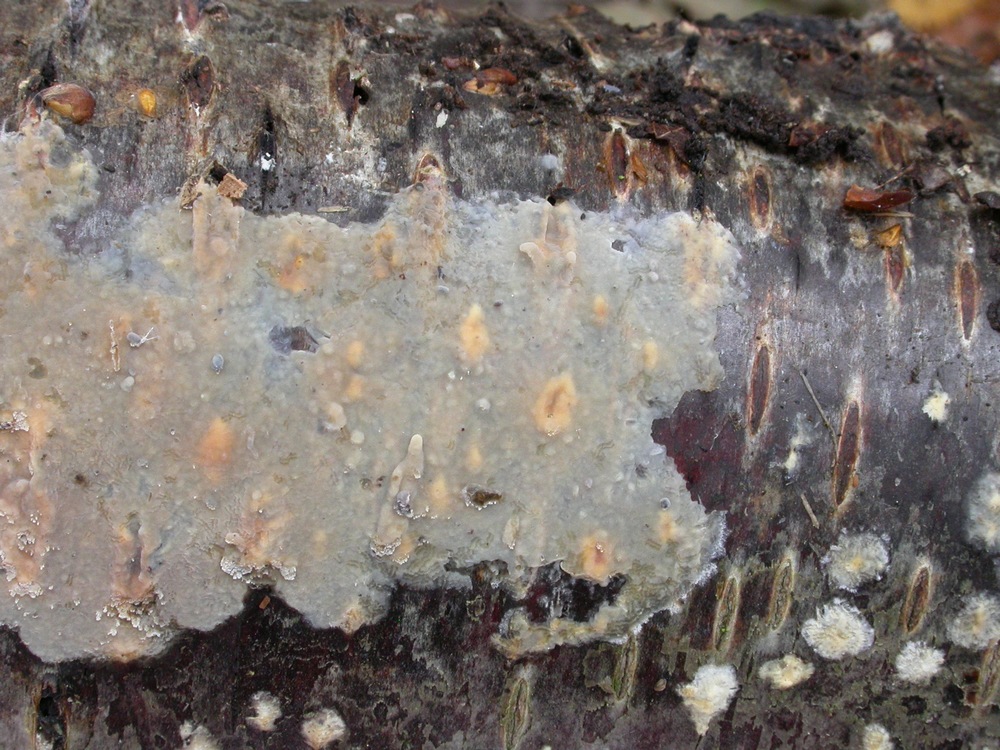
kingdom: Fungi
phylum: Basidiomycota
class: Agaricomycetes
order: Agaricales
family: Radulomycetaceae
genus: Radulomyces
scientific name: Radulomyces confluens
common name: glat naftalinskind
